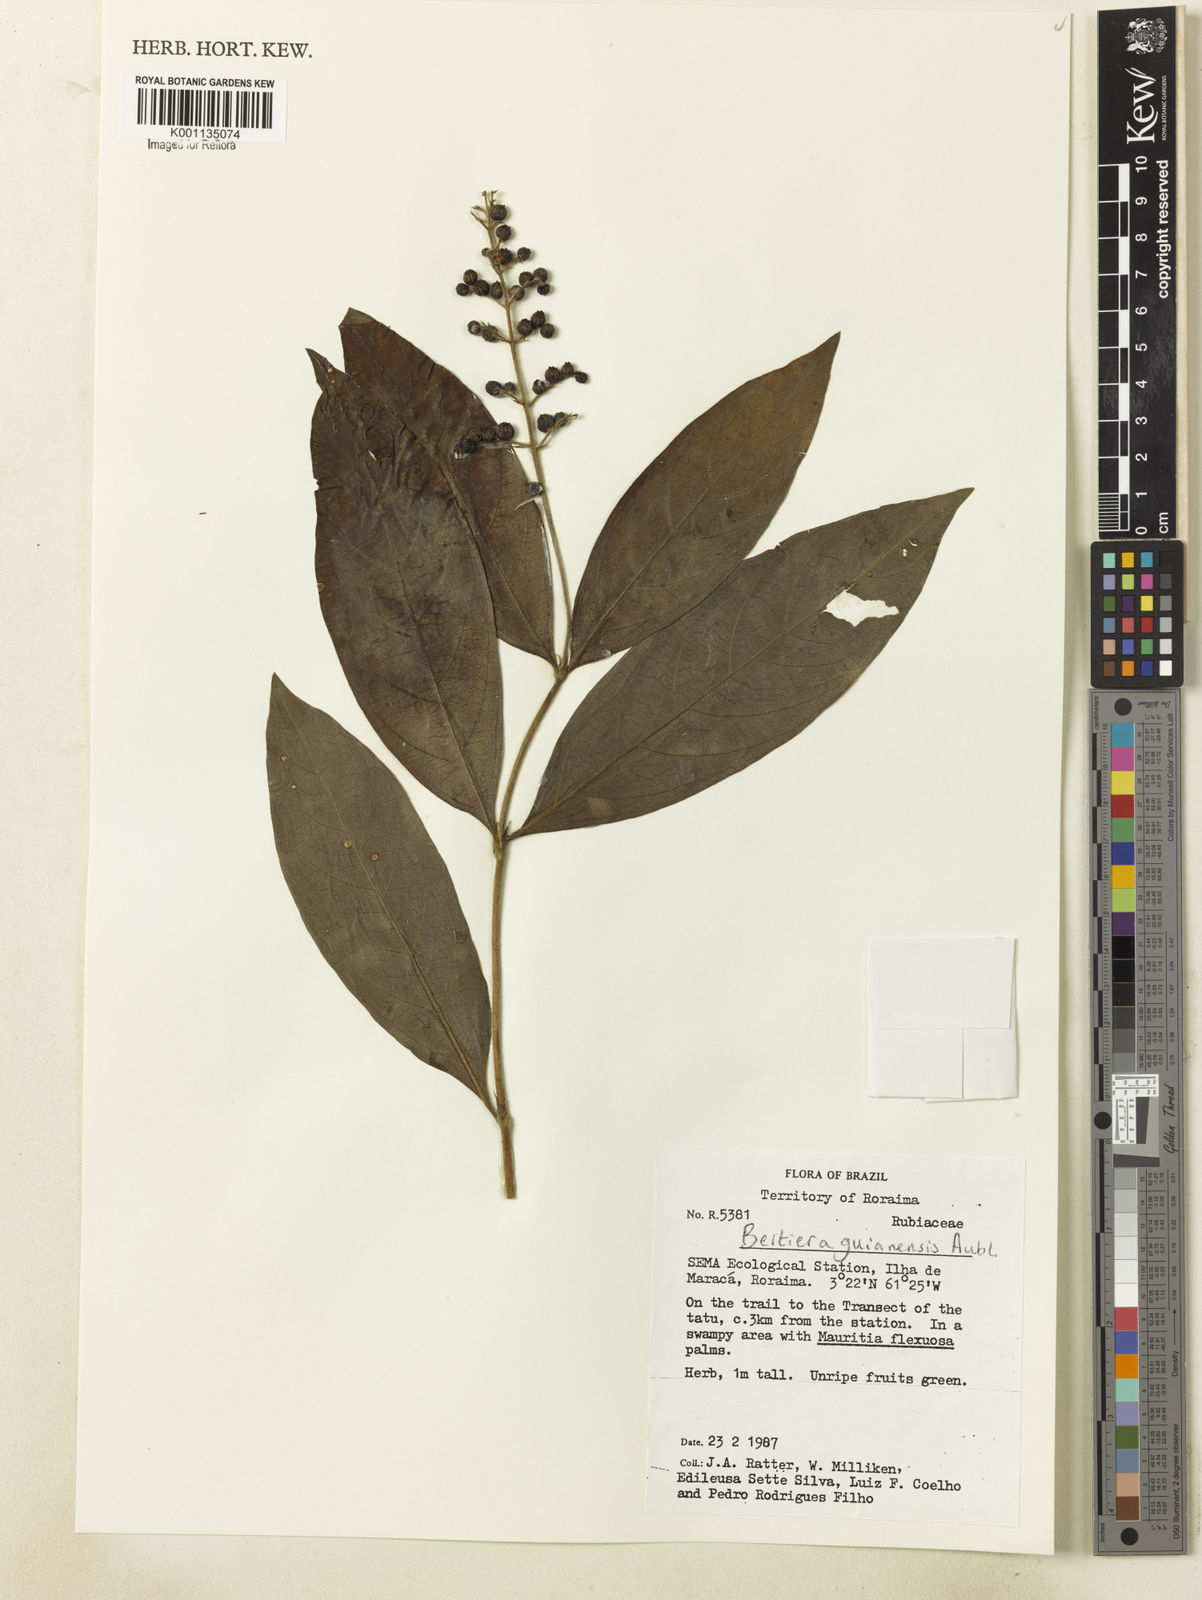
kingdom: Plantae
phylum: Tracheophyta
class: Magnoliopsida
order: Gentianales
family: Rubiaceae
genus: Bertiera
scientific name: Bertiera guianensis
